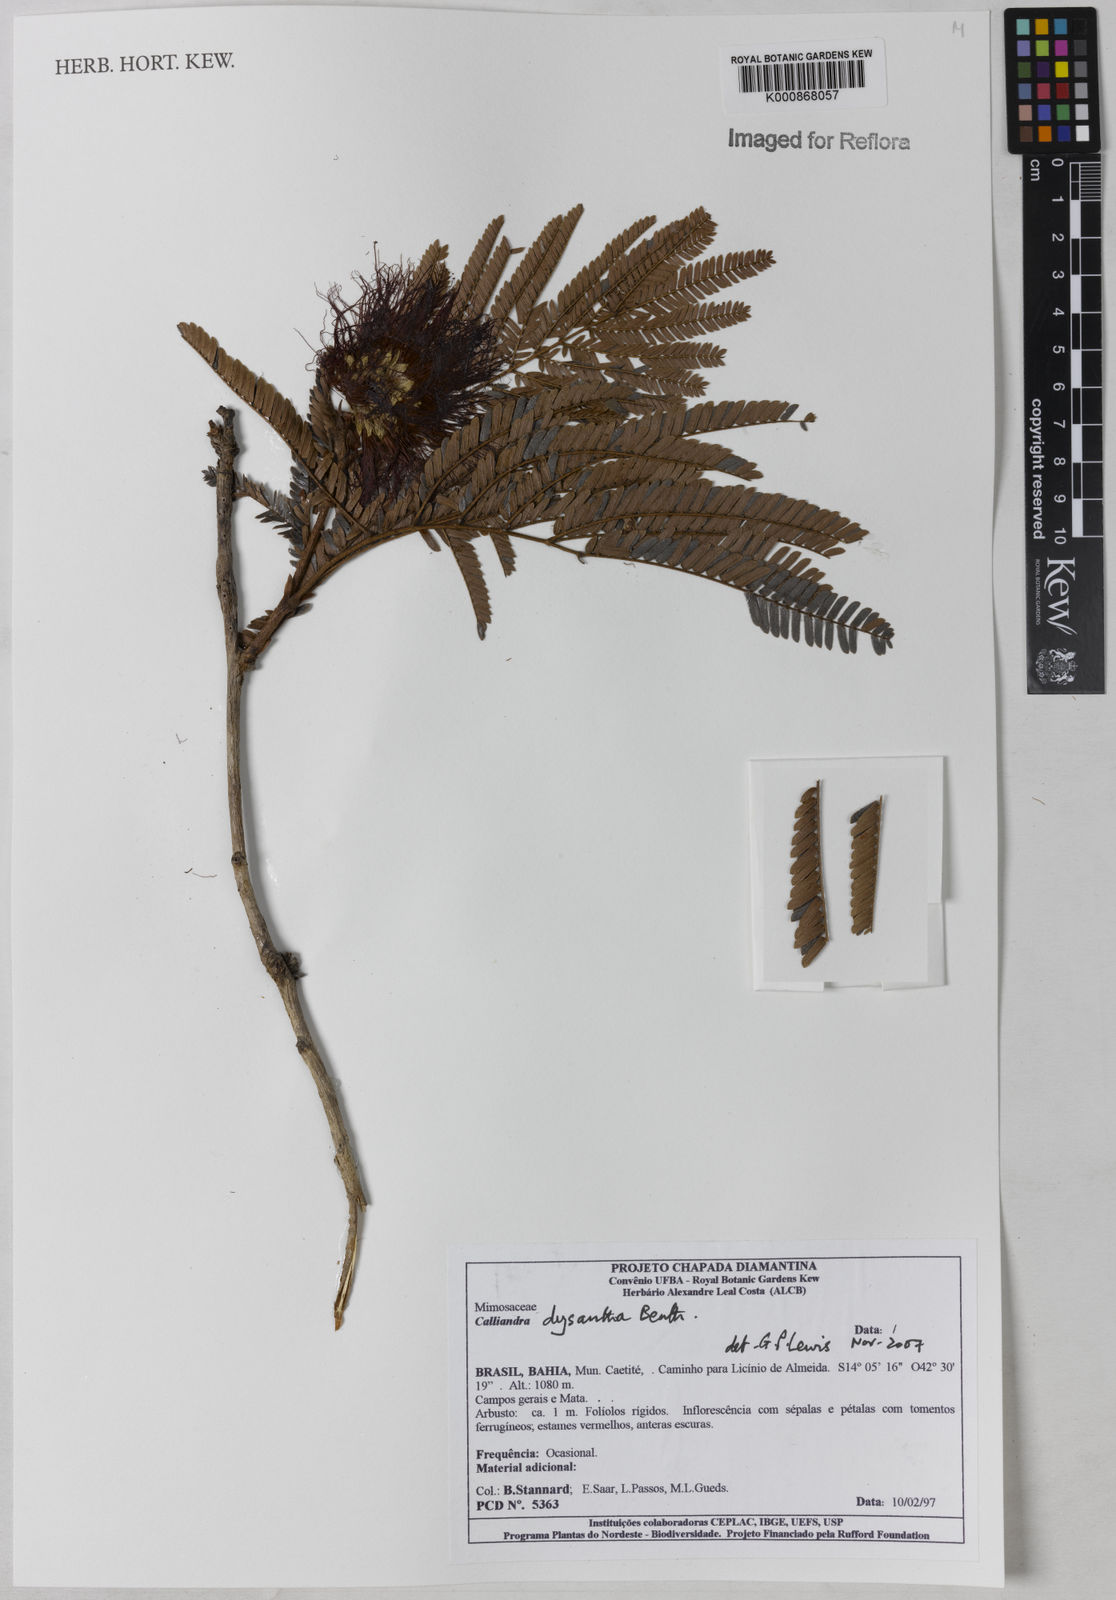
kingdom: Plantae
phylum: Tracheophyta
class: Magnoliopsida
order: Fabales
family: Fabaceae
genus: Calliandra
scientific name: Calliandra dysantha
